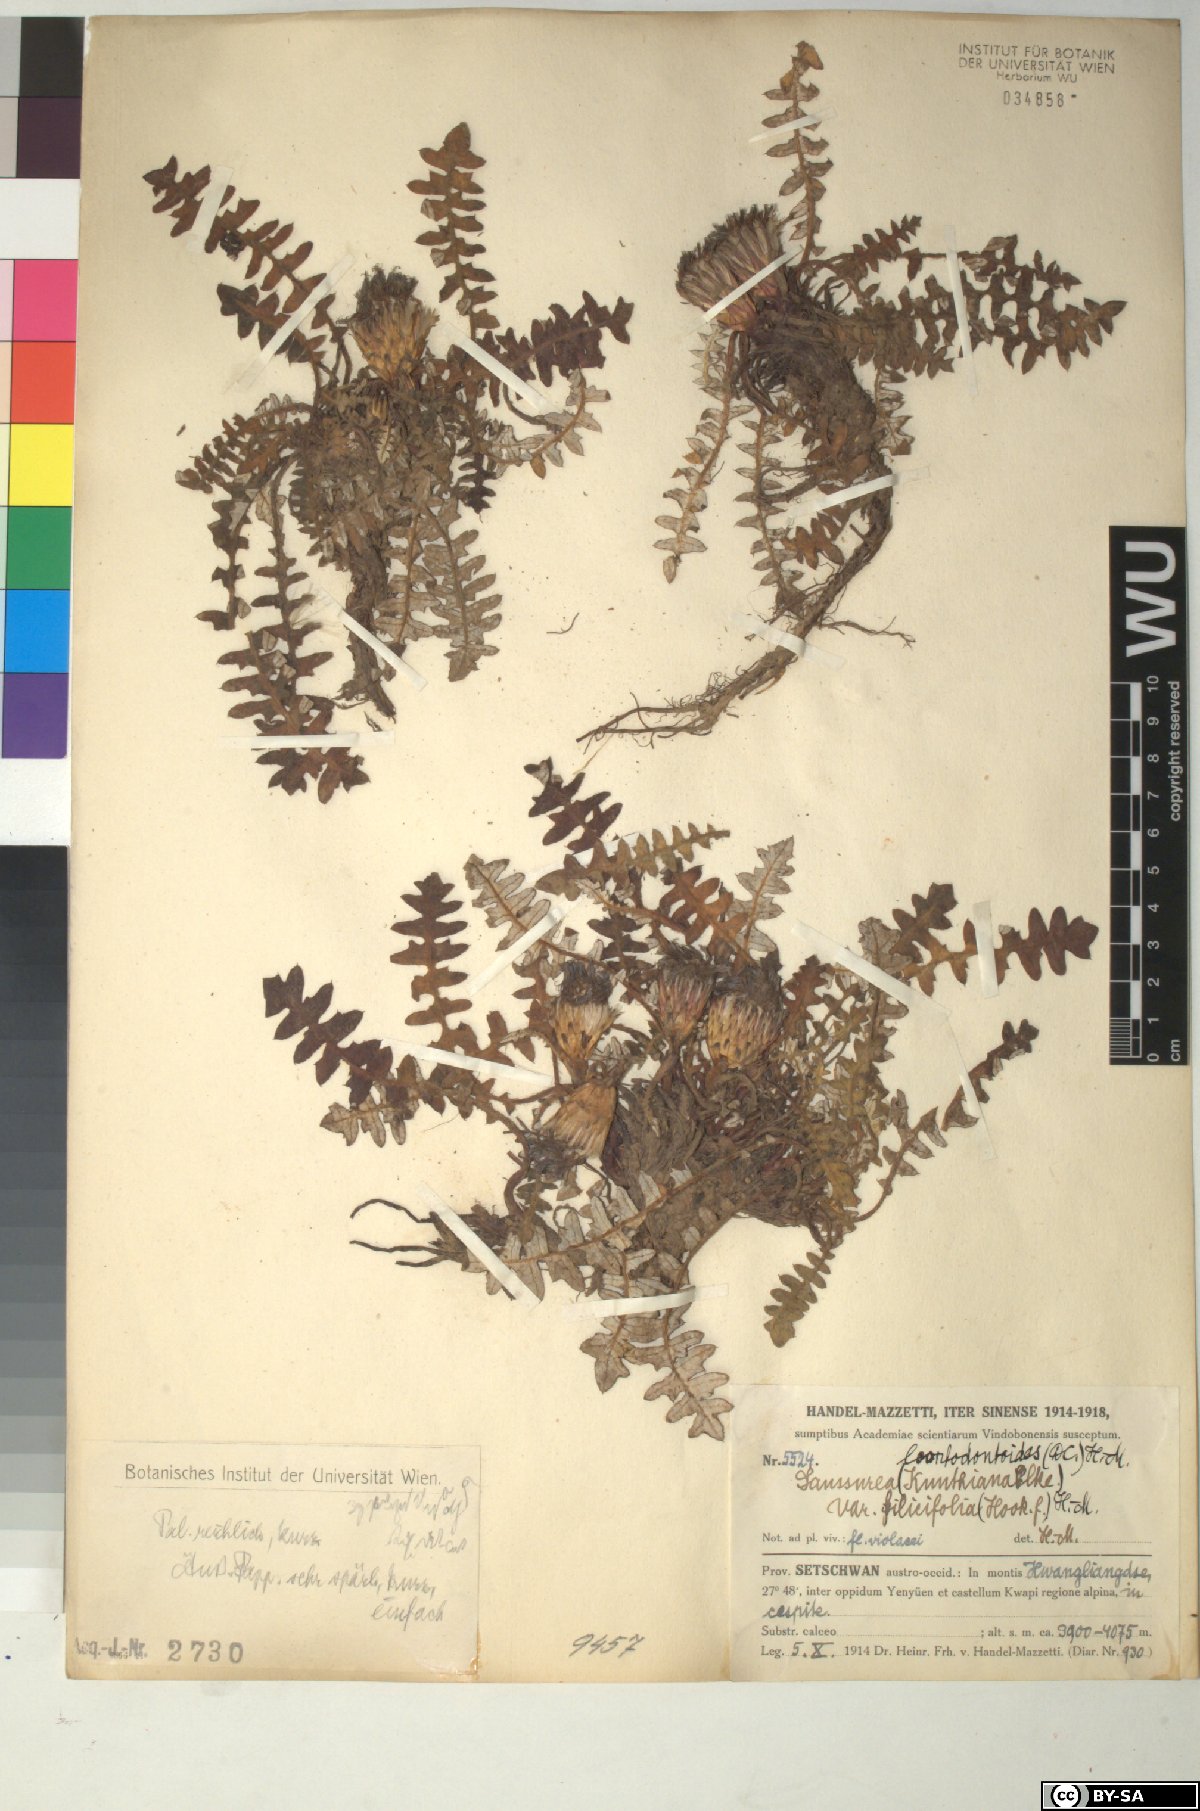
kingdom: Plantae
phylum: Tracheophyta
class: Magnoliopsida
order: Asterales
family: Asteraceae
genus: Saussurea
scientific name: Saussurea pachyneura
